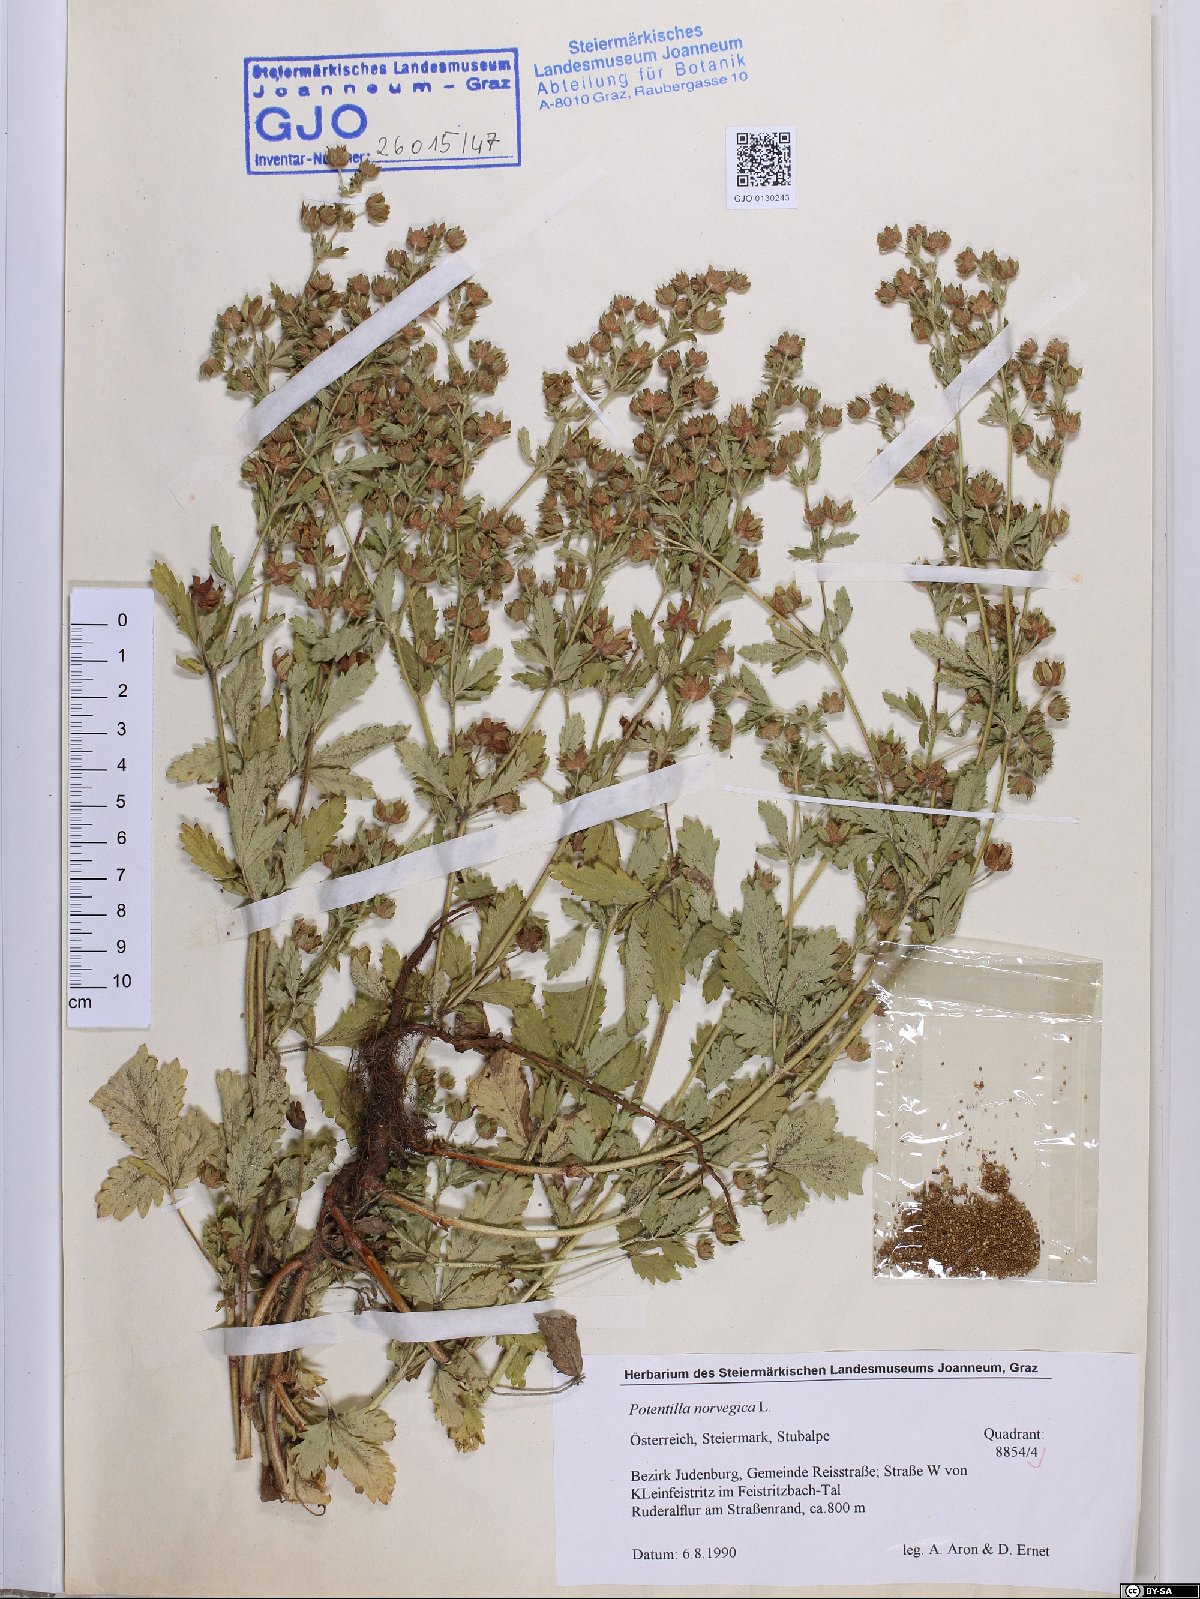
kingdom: Plantae
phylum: Tracheophyta
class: Magnoliopsida
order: Rosales
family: Rosaceae
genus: Potentilla
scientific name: Potentilla norvegica
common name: Ternate-leaved cinquefoil
